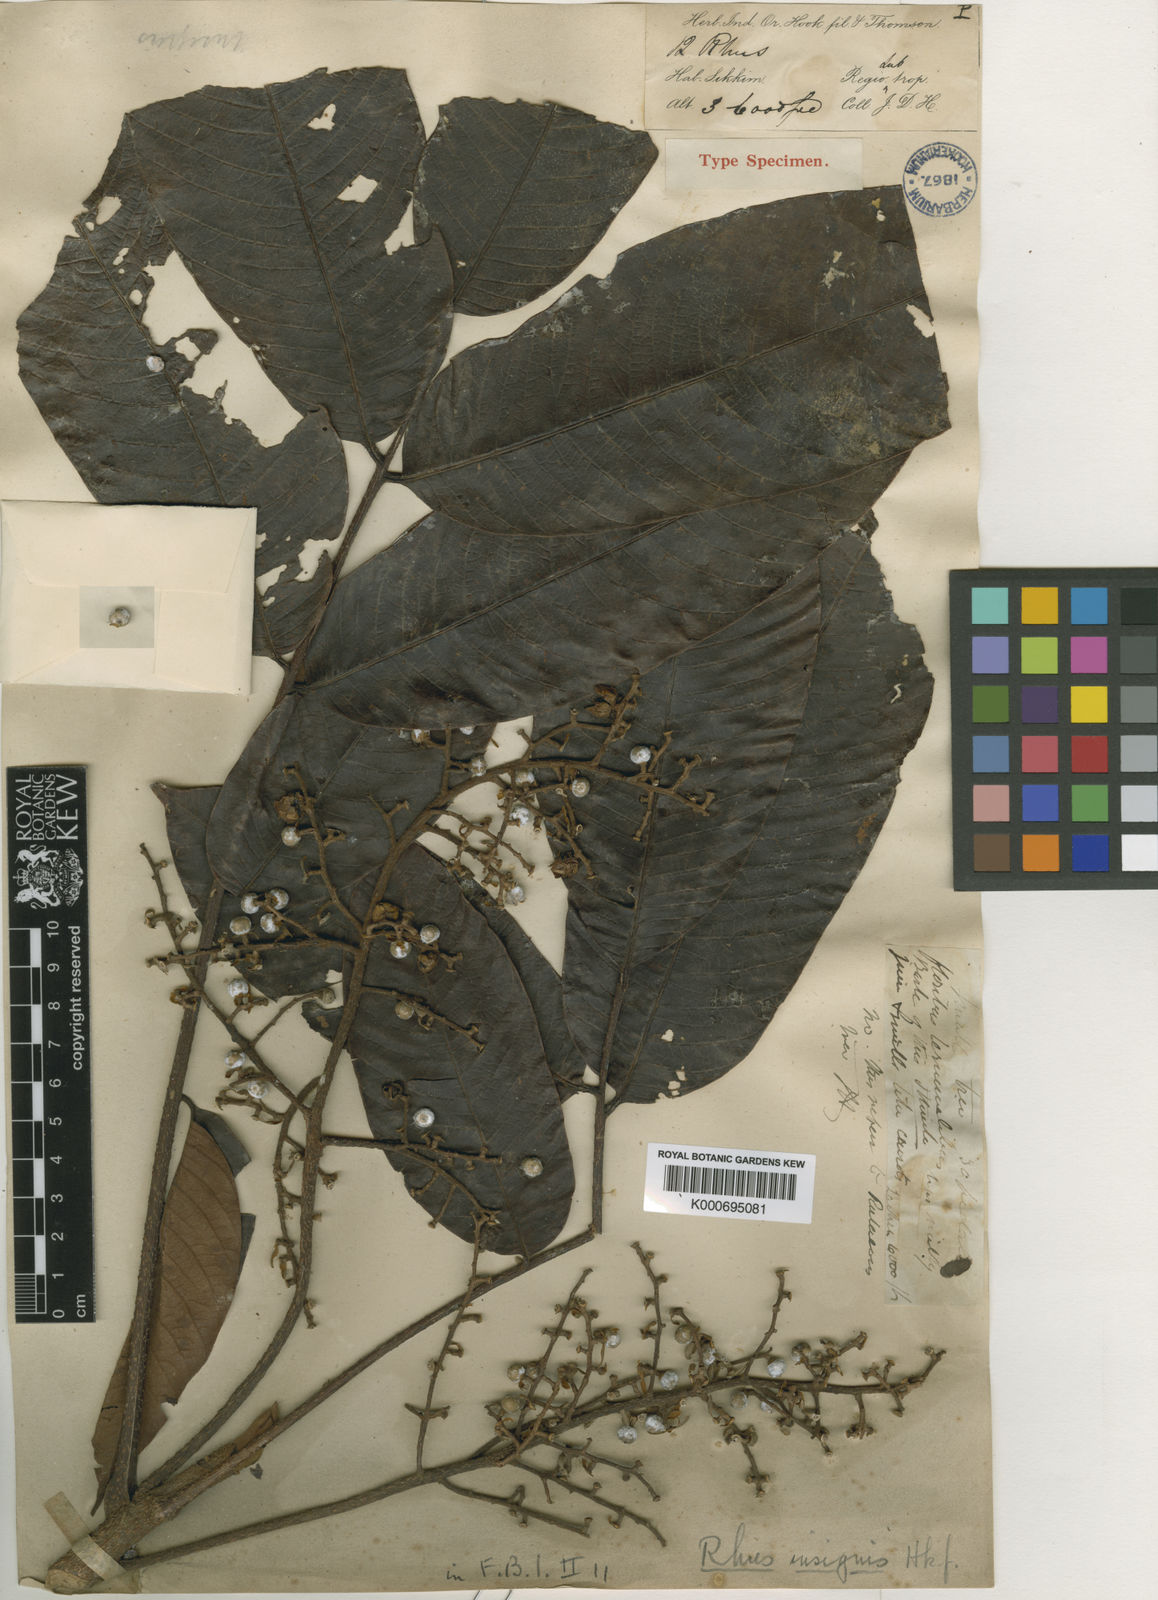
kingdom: Plantae
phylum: Tracheophyta
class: Magnoliopsida
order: Sapindales
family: Anacardiaceae
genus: Toxicodendron
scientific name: Toxicodendron succedaneum
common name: Wax tree
